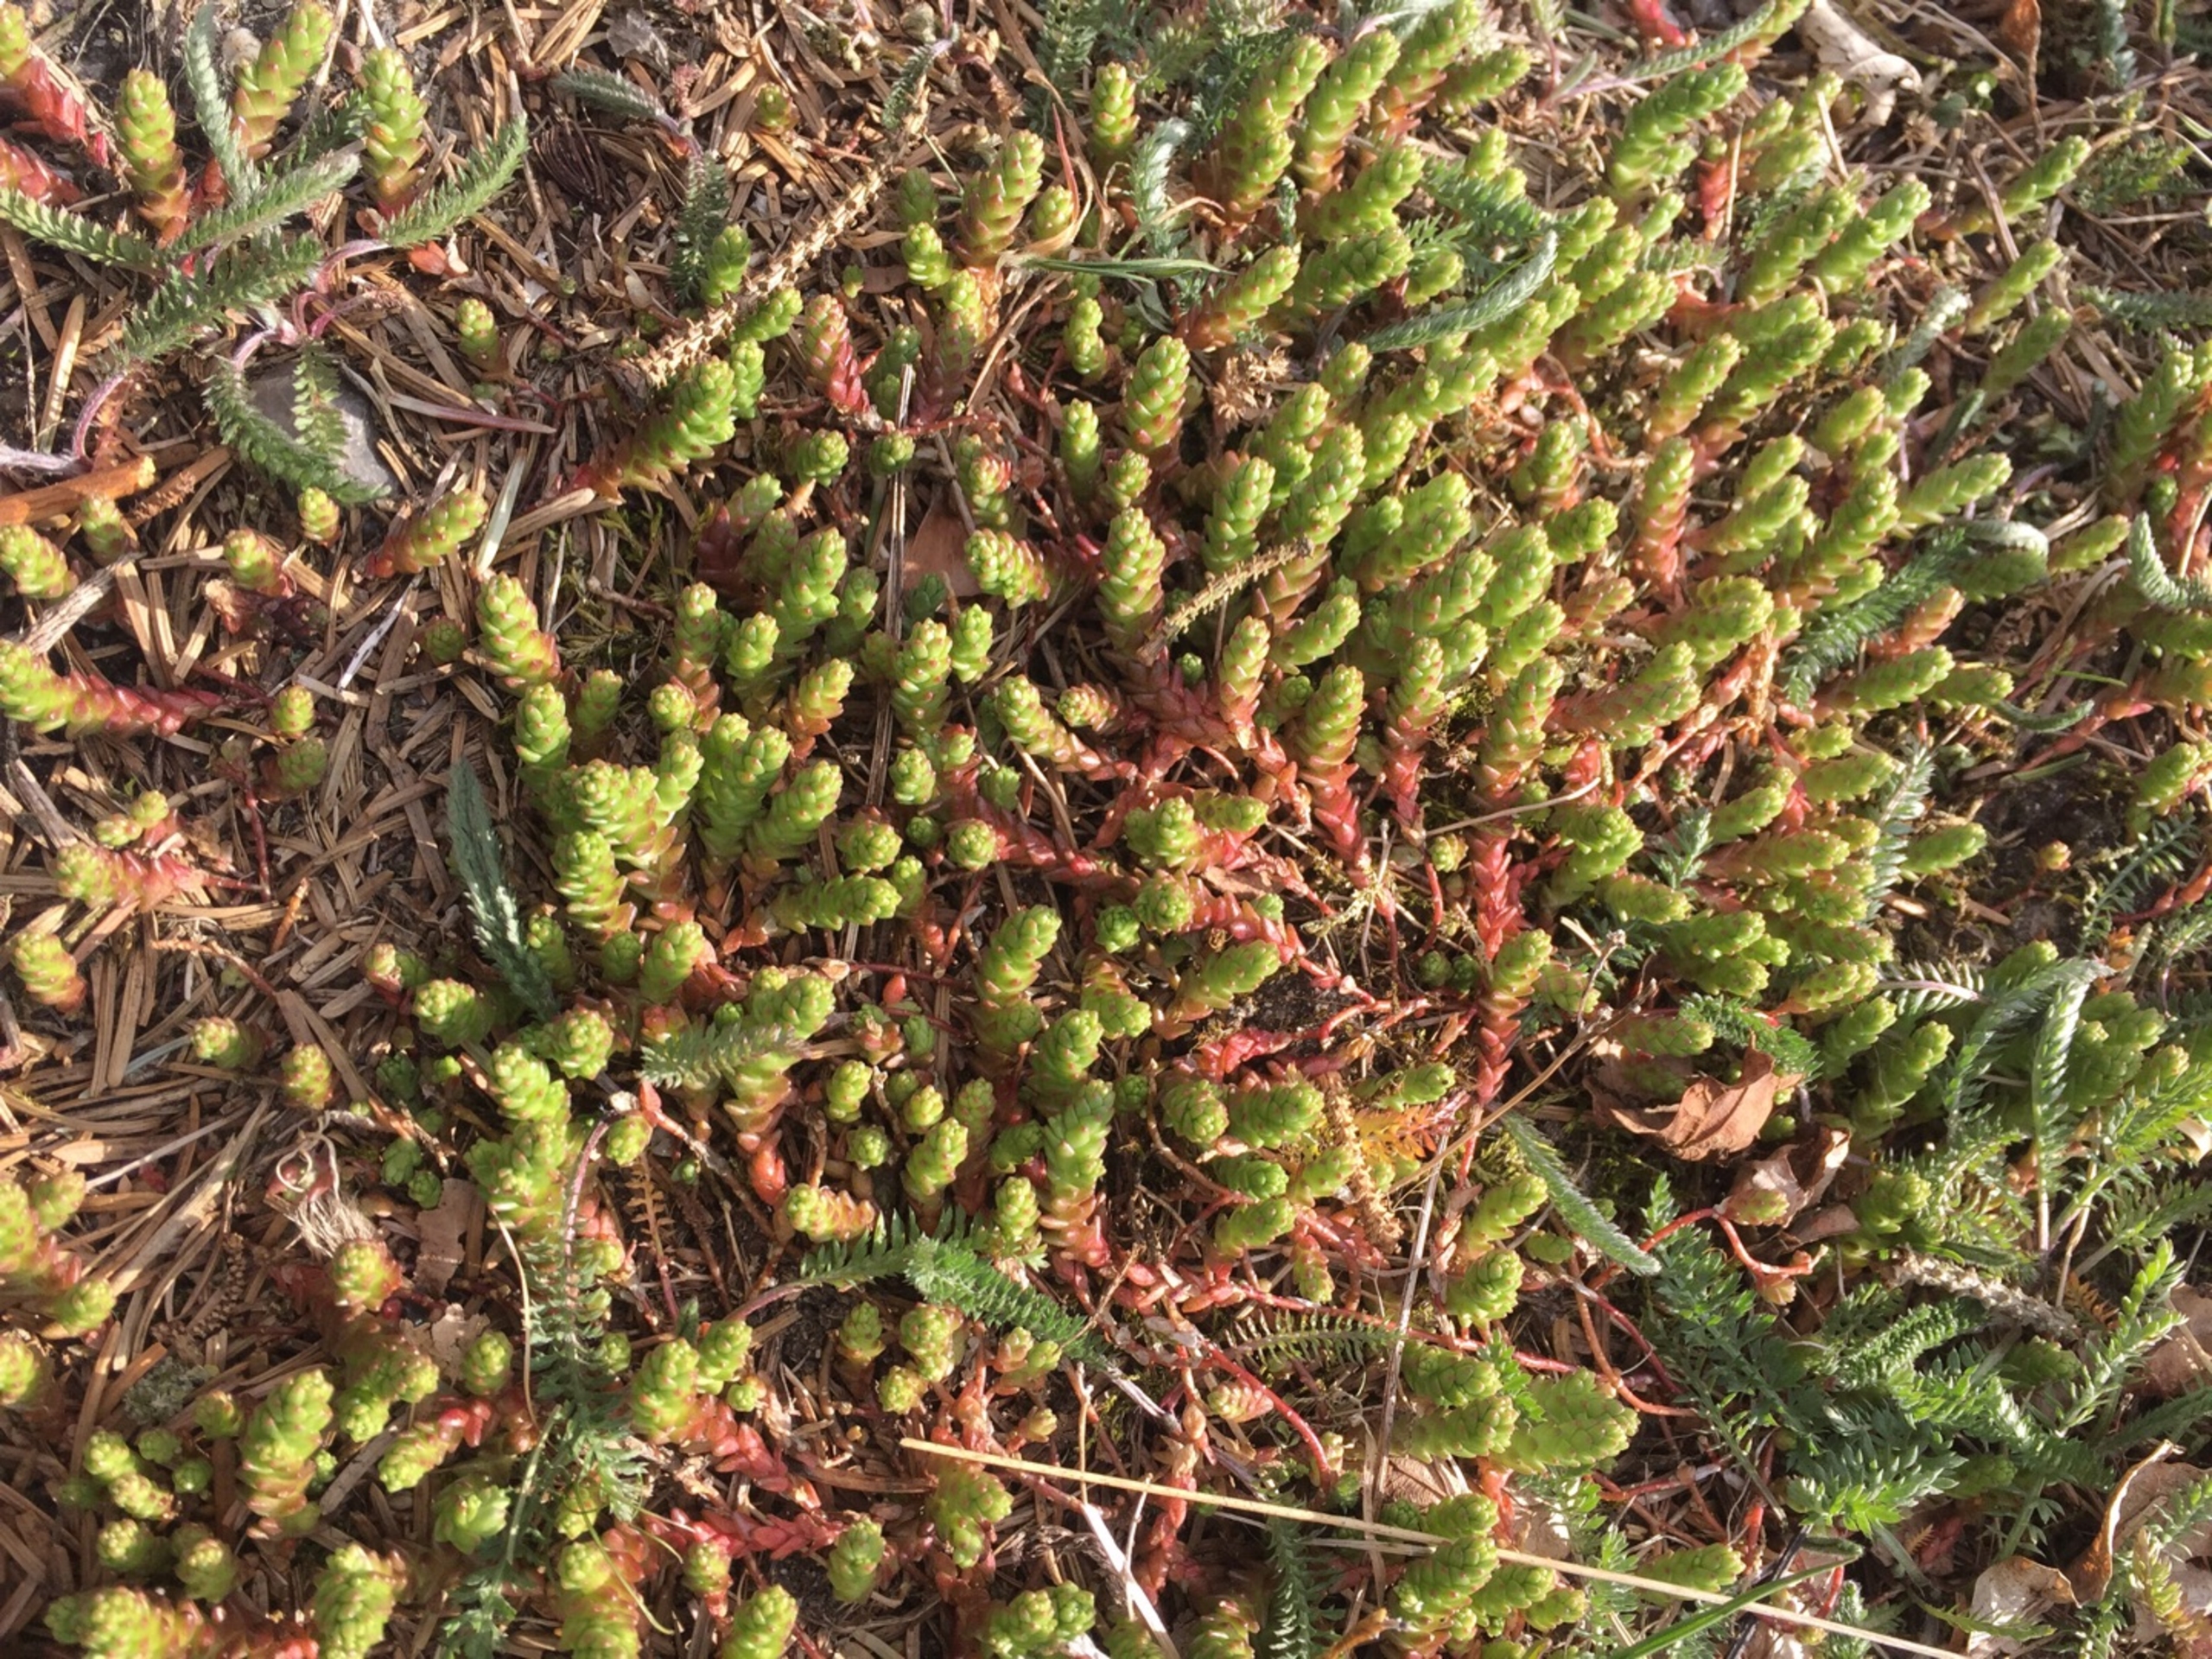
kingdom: Plantae
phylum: Tracheophyta
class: Magnoliopsida
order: Saxifragales
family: Crassulaceae
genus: Sedum
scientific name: Sedum acre
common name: Bidende stenurt
